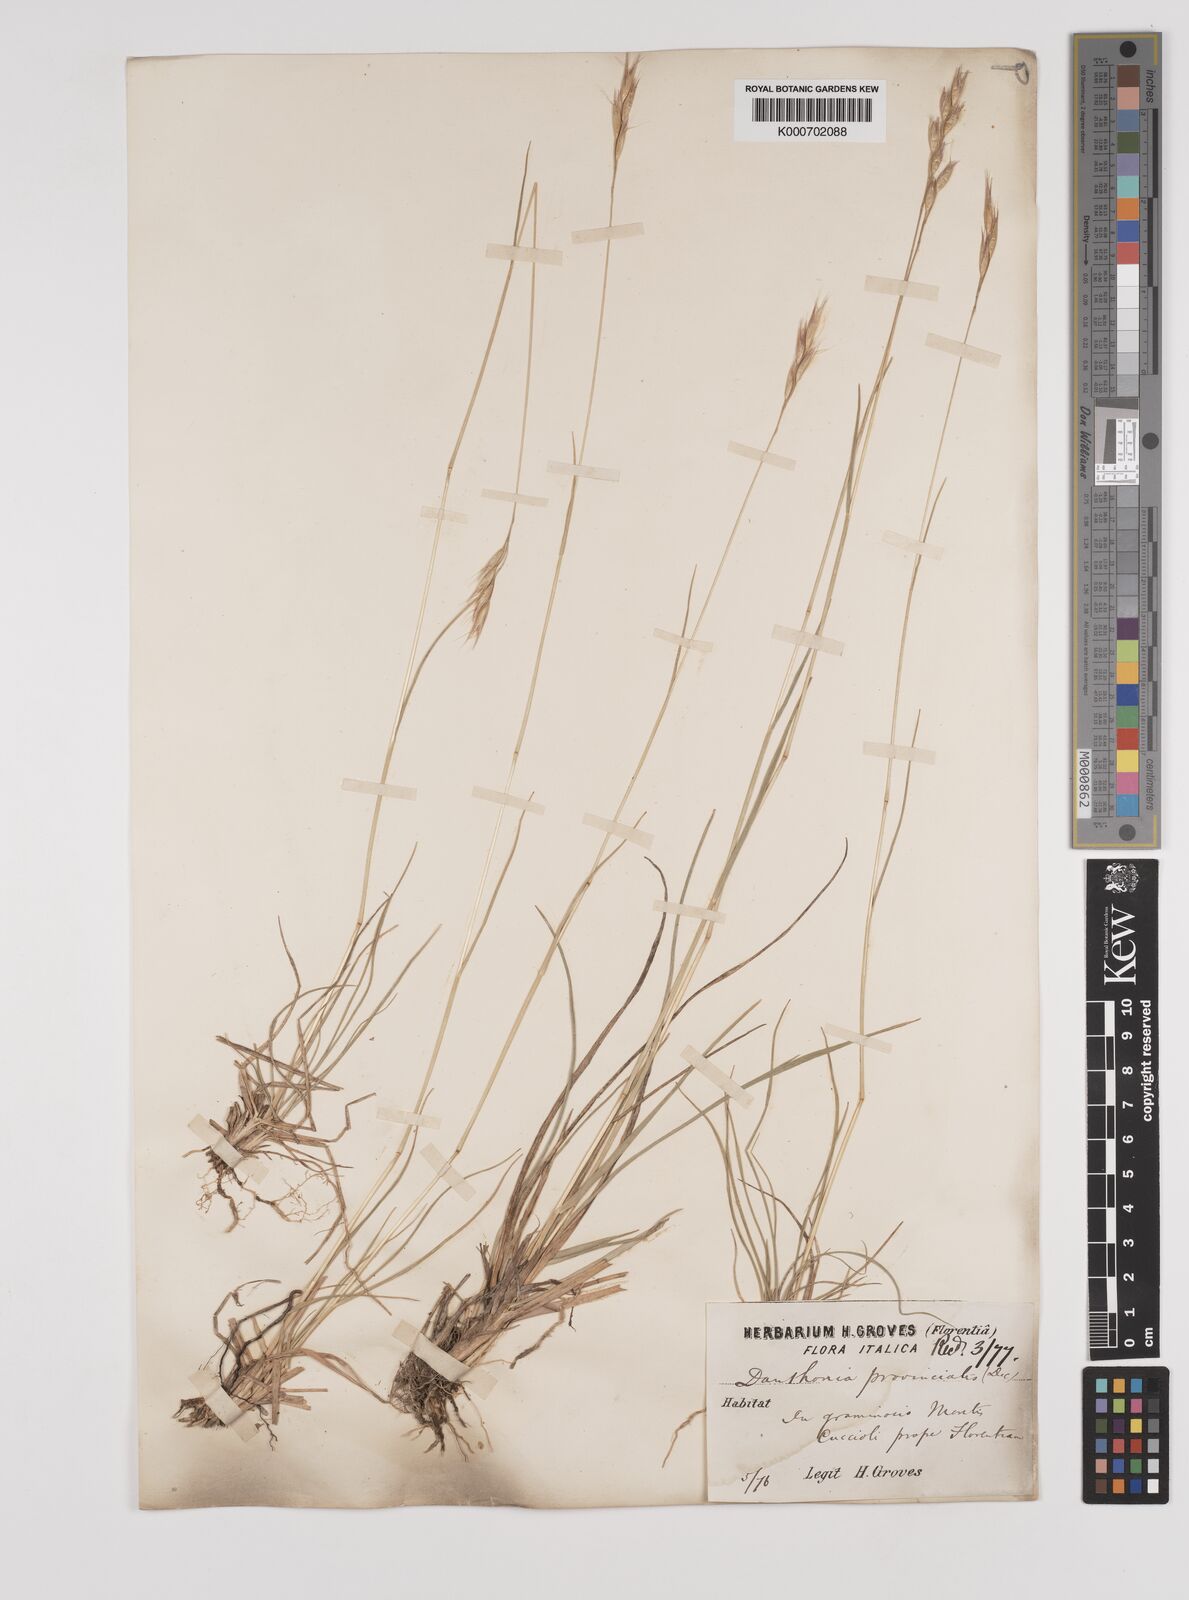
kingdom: Plantae
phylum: Tracheophyta
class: Liliopsida
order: Poales
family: Poaceae
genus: Danthonia
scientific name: Danthonia alpina
